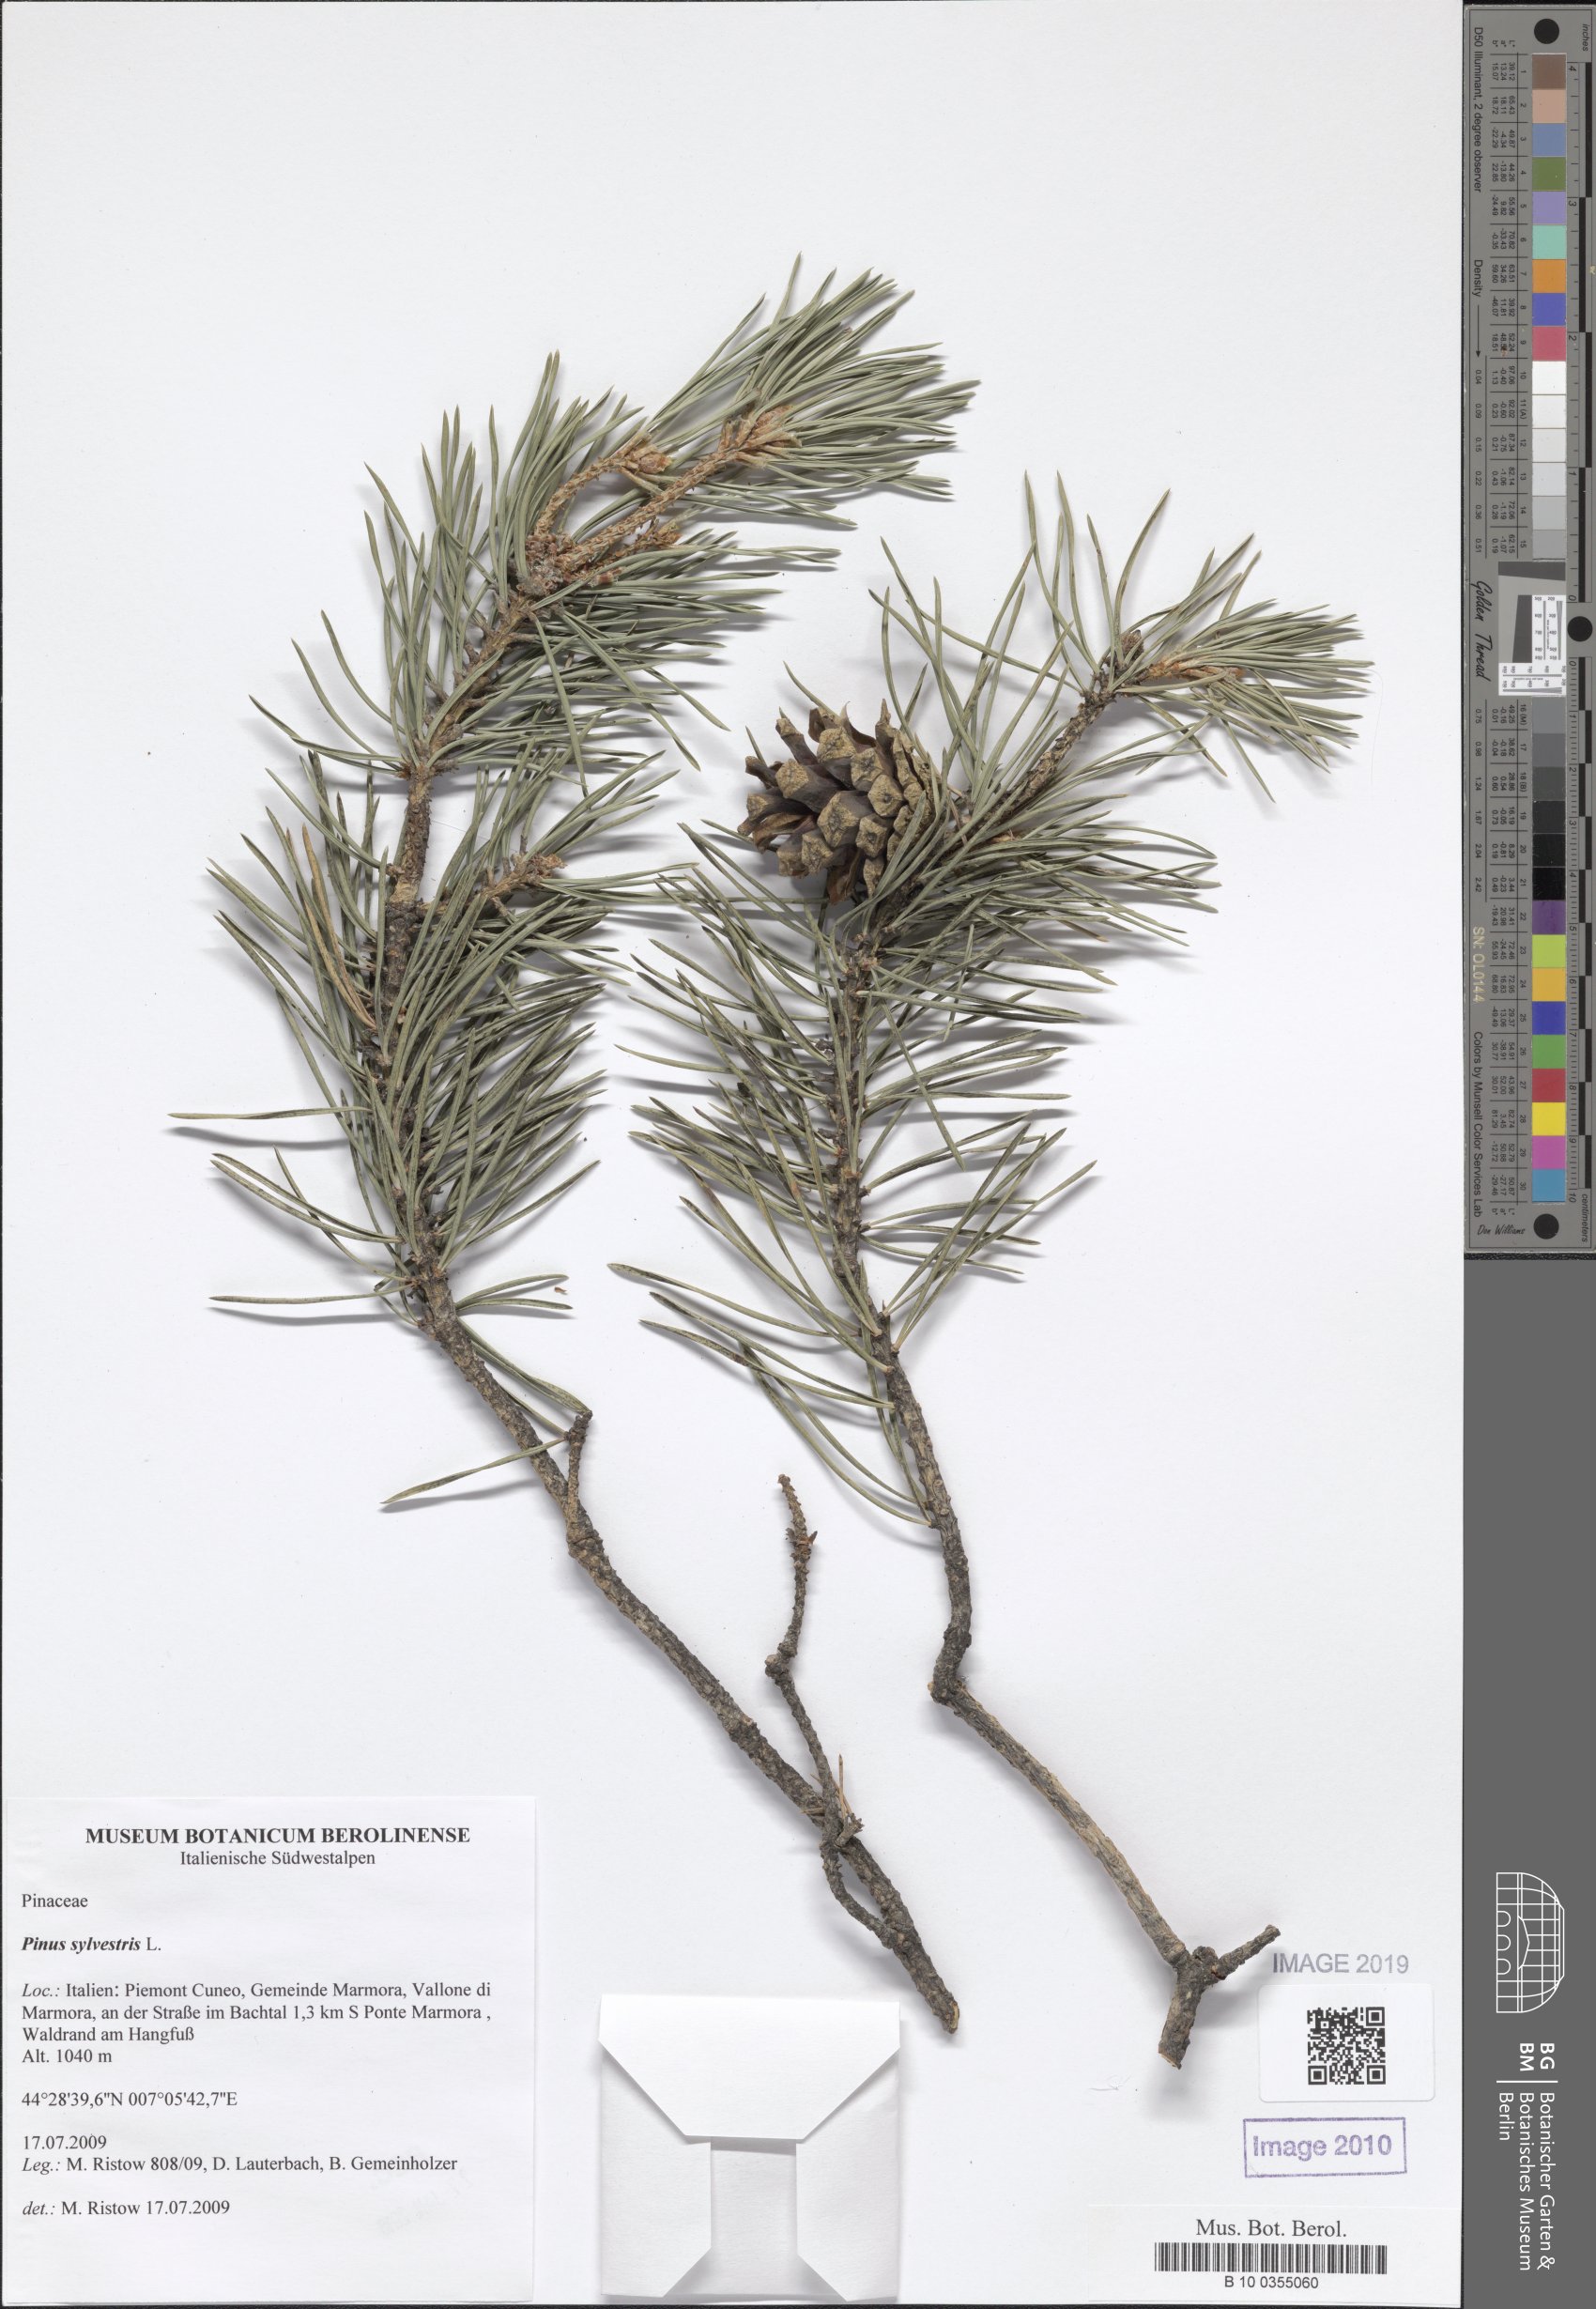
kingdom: Plantae
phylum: Tracheophyta
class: Pinopsida
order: Pinales
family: Pinaceae
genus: Pinus
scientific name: Pinus sylvestris
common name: Scots pine
